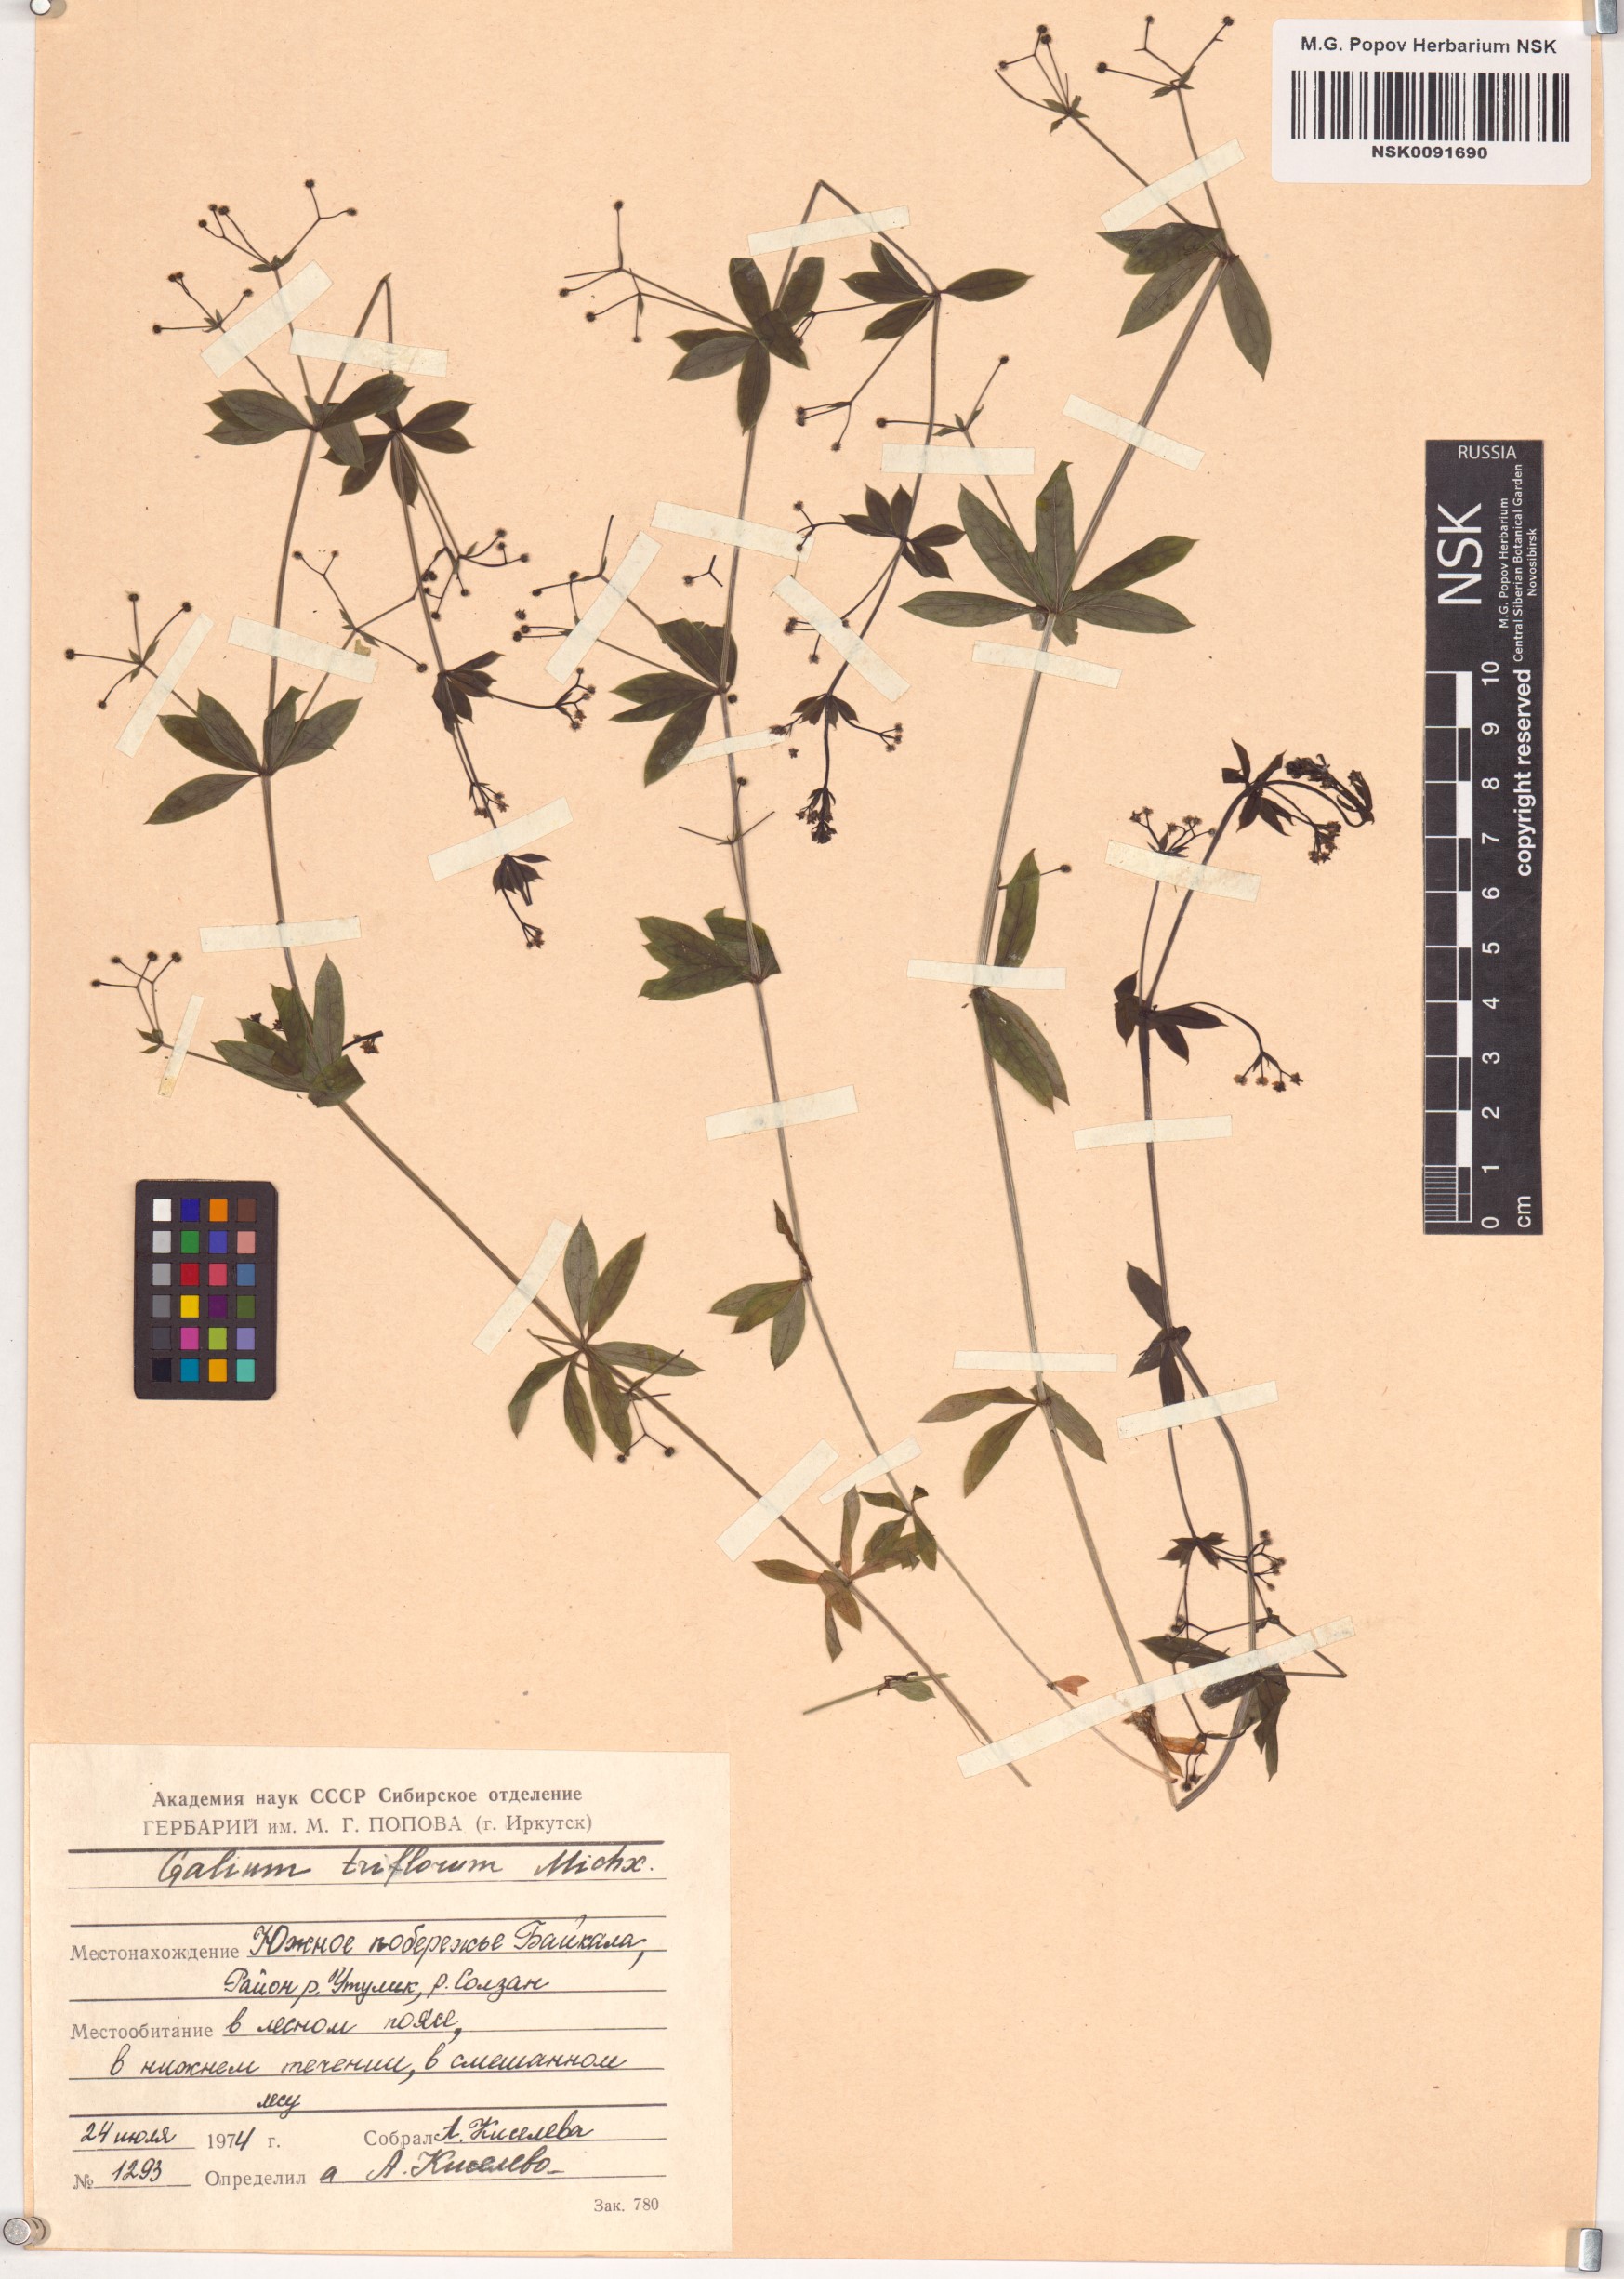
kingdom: Plantae
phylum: Tracheophyta
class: Magnoliopsida
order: Gentianales
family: Rubiaceae
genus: Galium
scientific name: Galium triflorum
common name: Fragrant bedstraw
